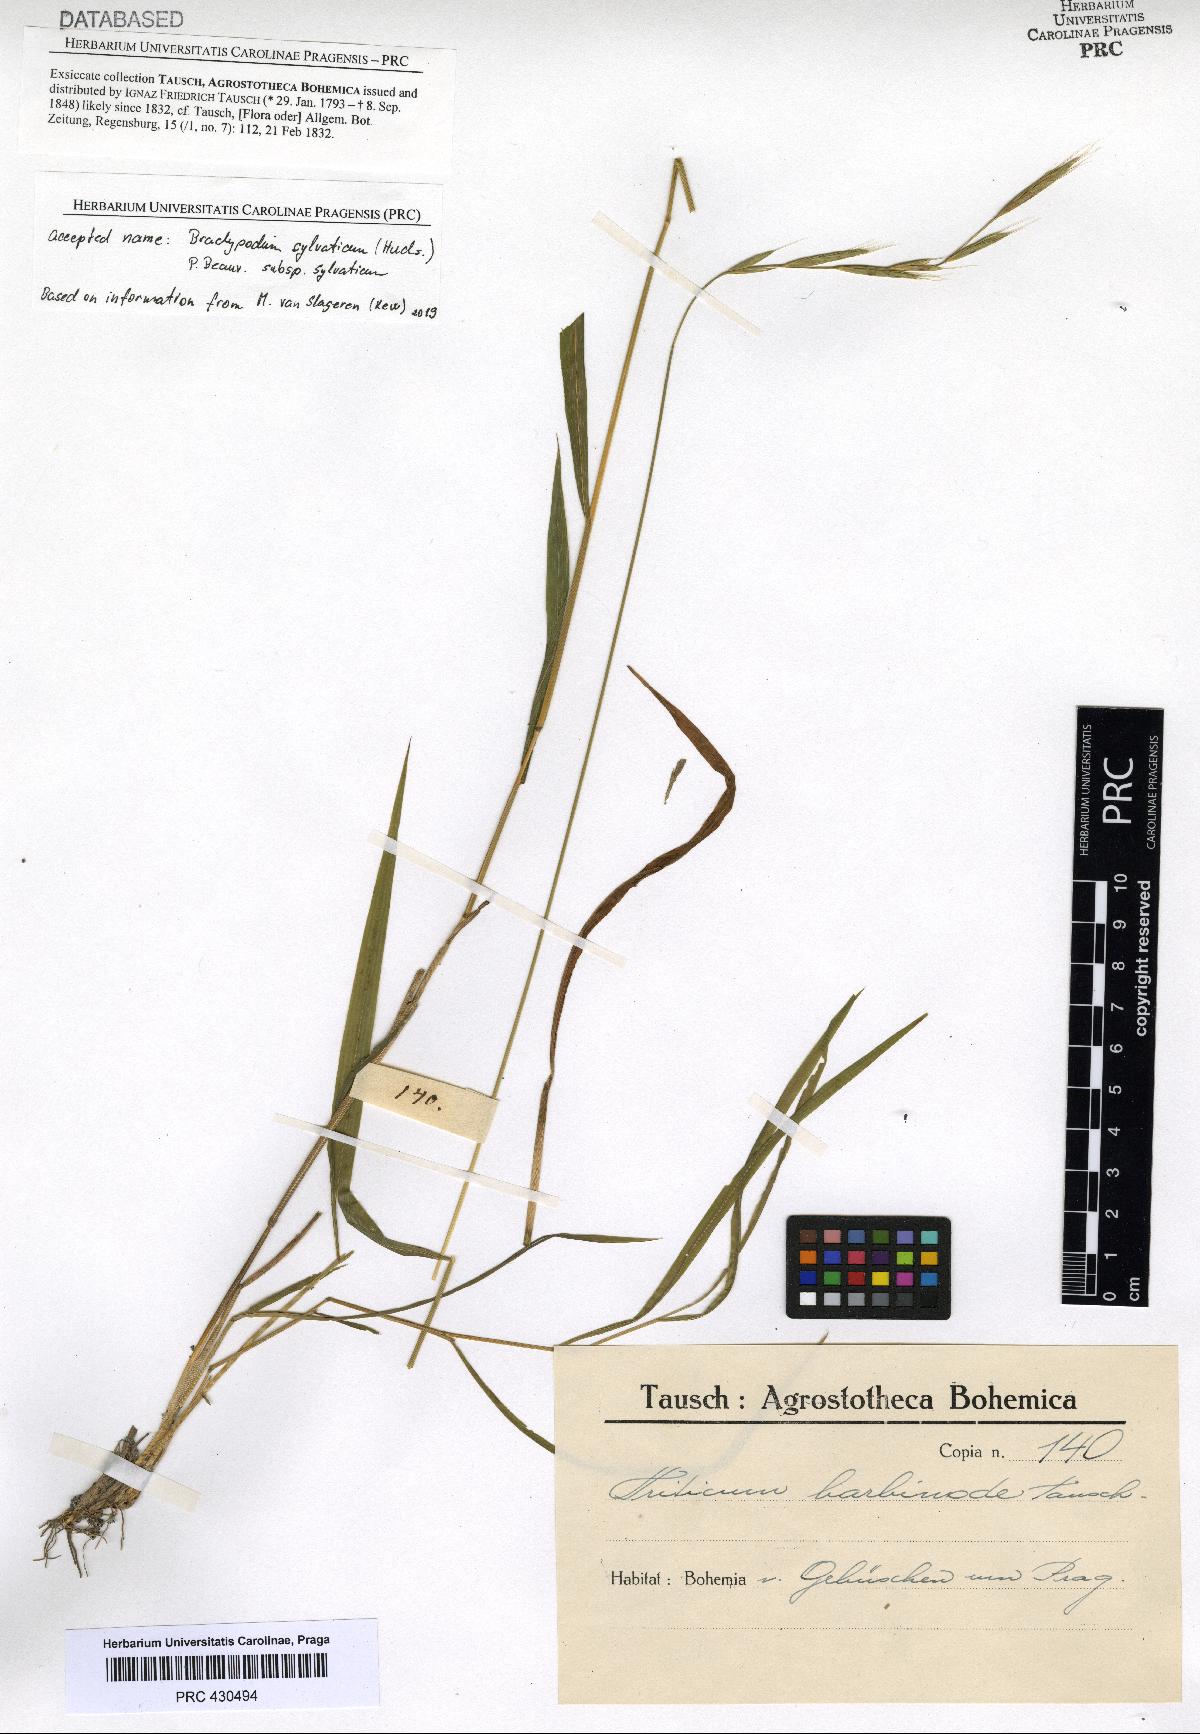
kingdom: Plantae
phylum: Tracheophyta
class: Liliopsida
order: Poales
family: Poaceae
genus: Brachypodium
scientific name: Brachypodium sylvaticum
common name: False-brome
